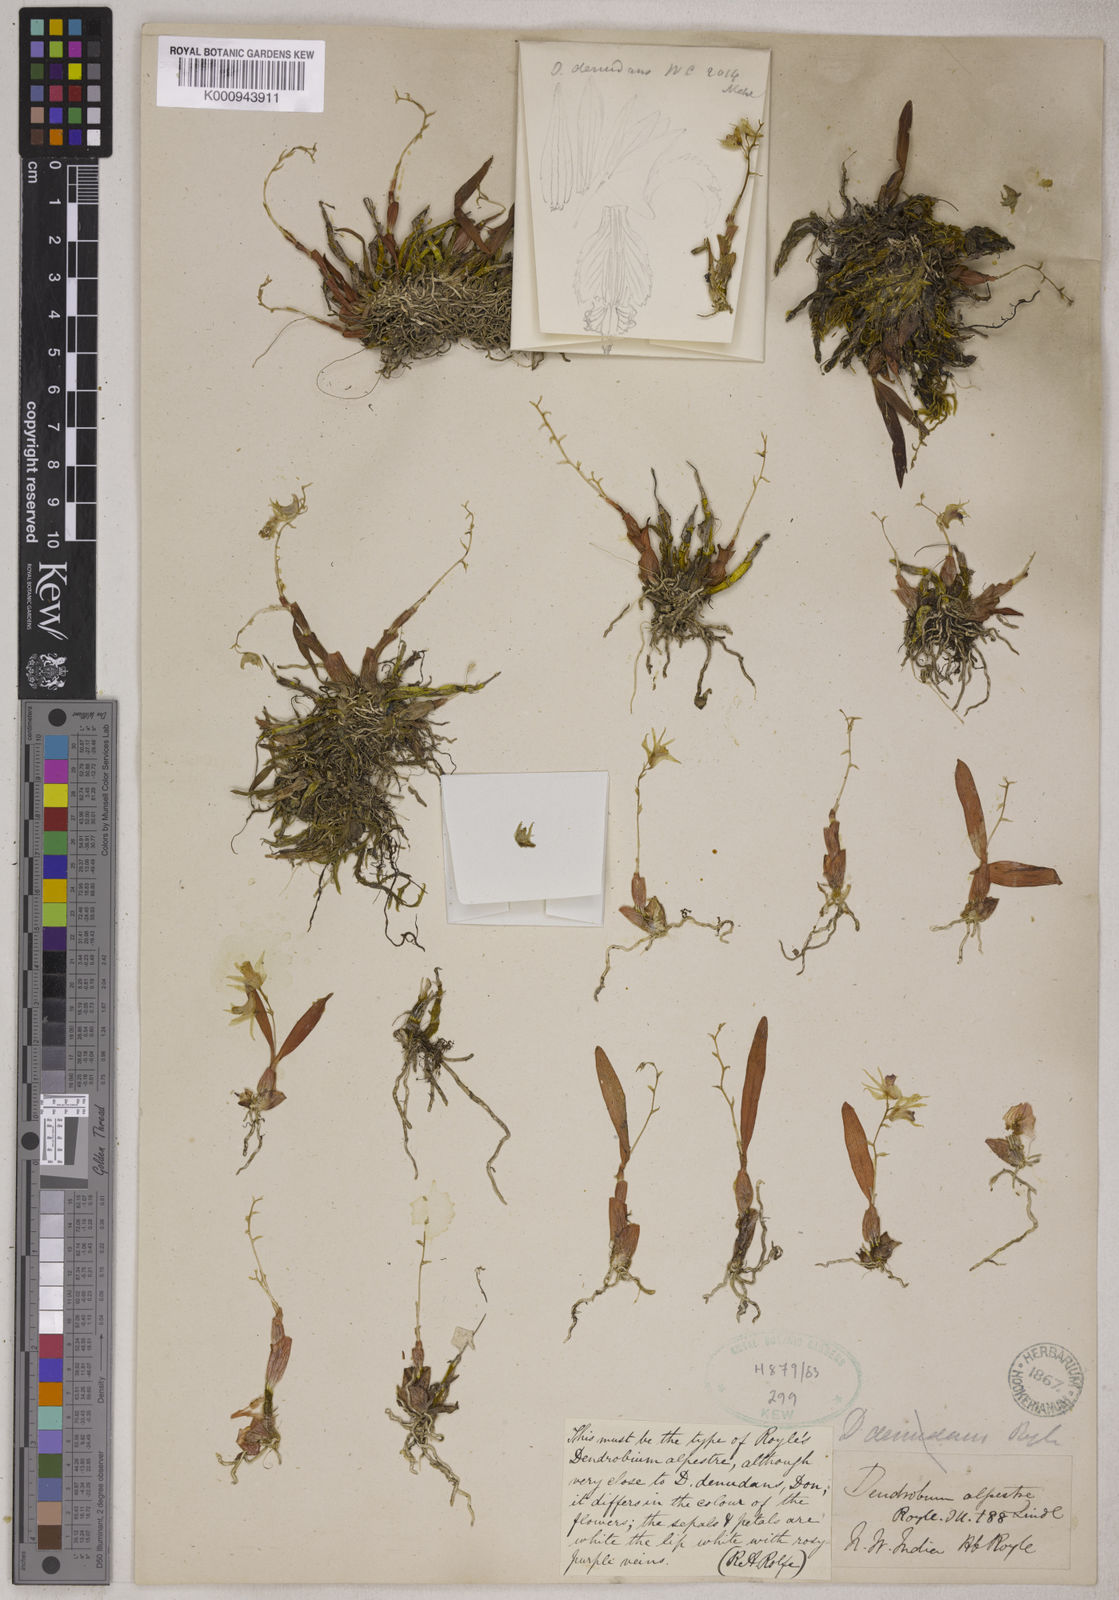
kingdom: Plantae
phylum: Tracheophyta
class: Liliopsida
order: Asparagales
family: Orchidaceae
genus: Dendrobium
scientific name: Dendrobium monticola
